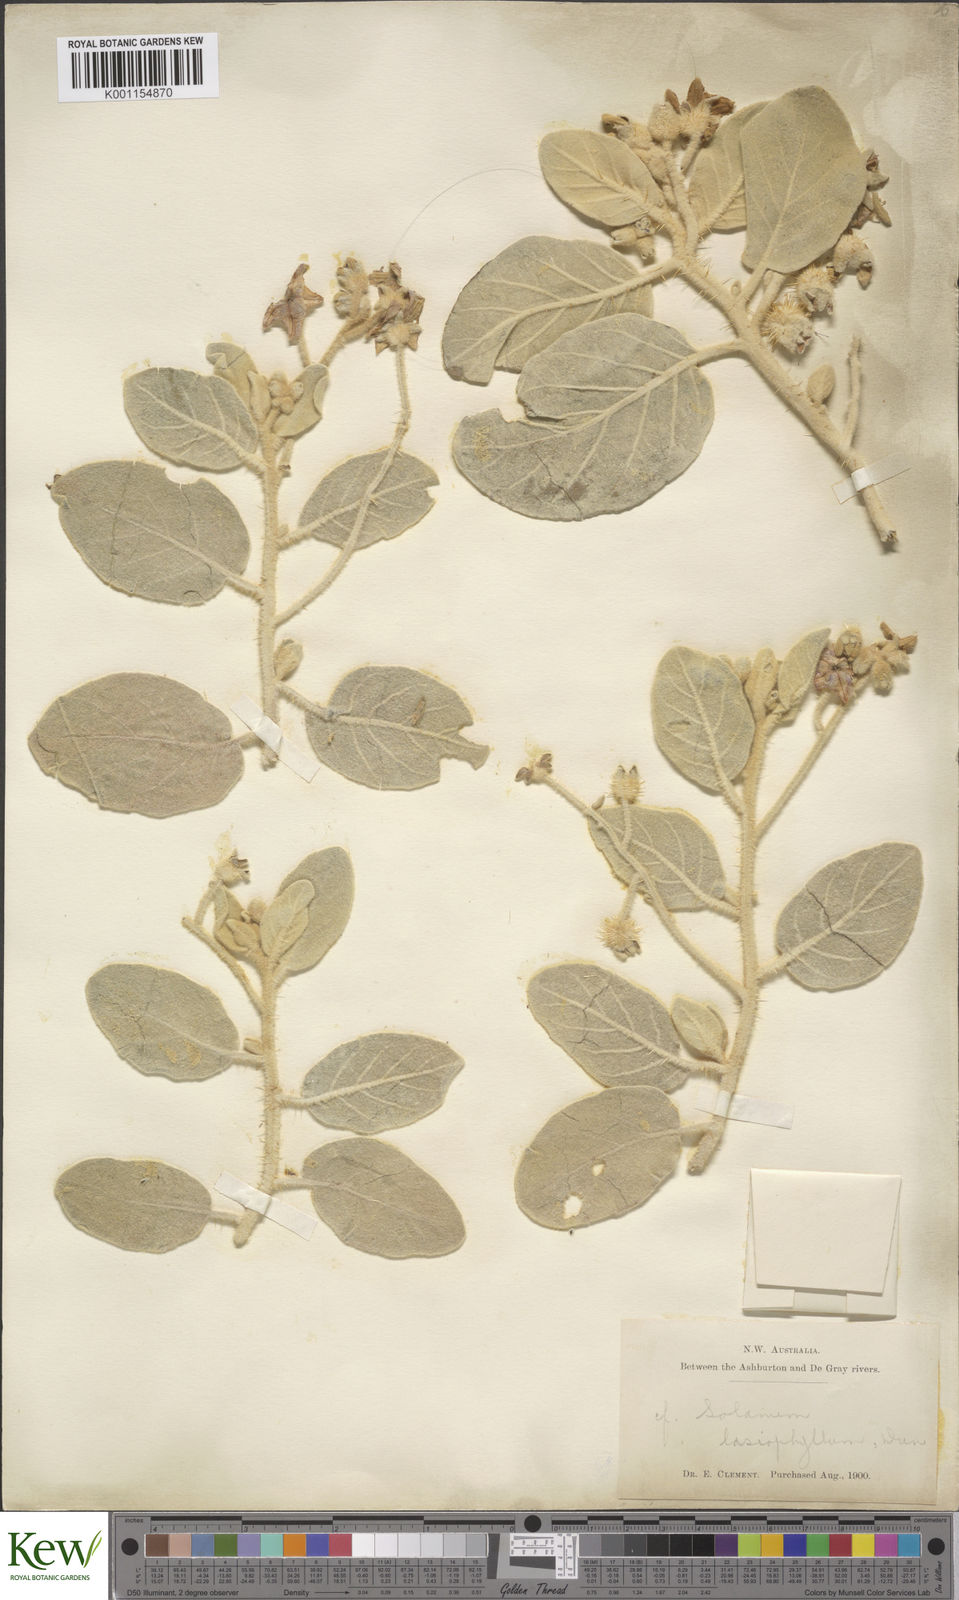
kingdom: Plantae
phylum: Tracheophyta
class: Magnoliopsida
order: Solanales
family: Solanaceae
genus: Solanum
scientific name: Solanum lasiophyllum
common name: Flannelbush
